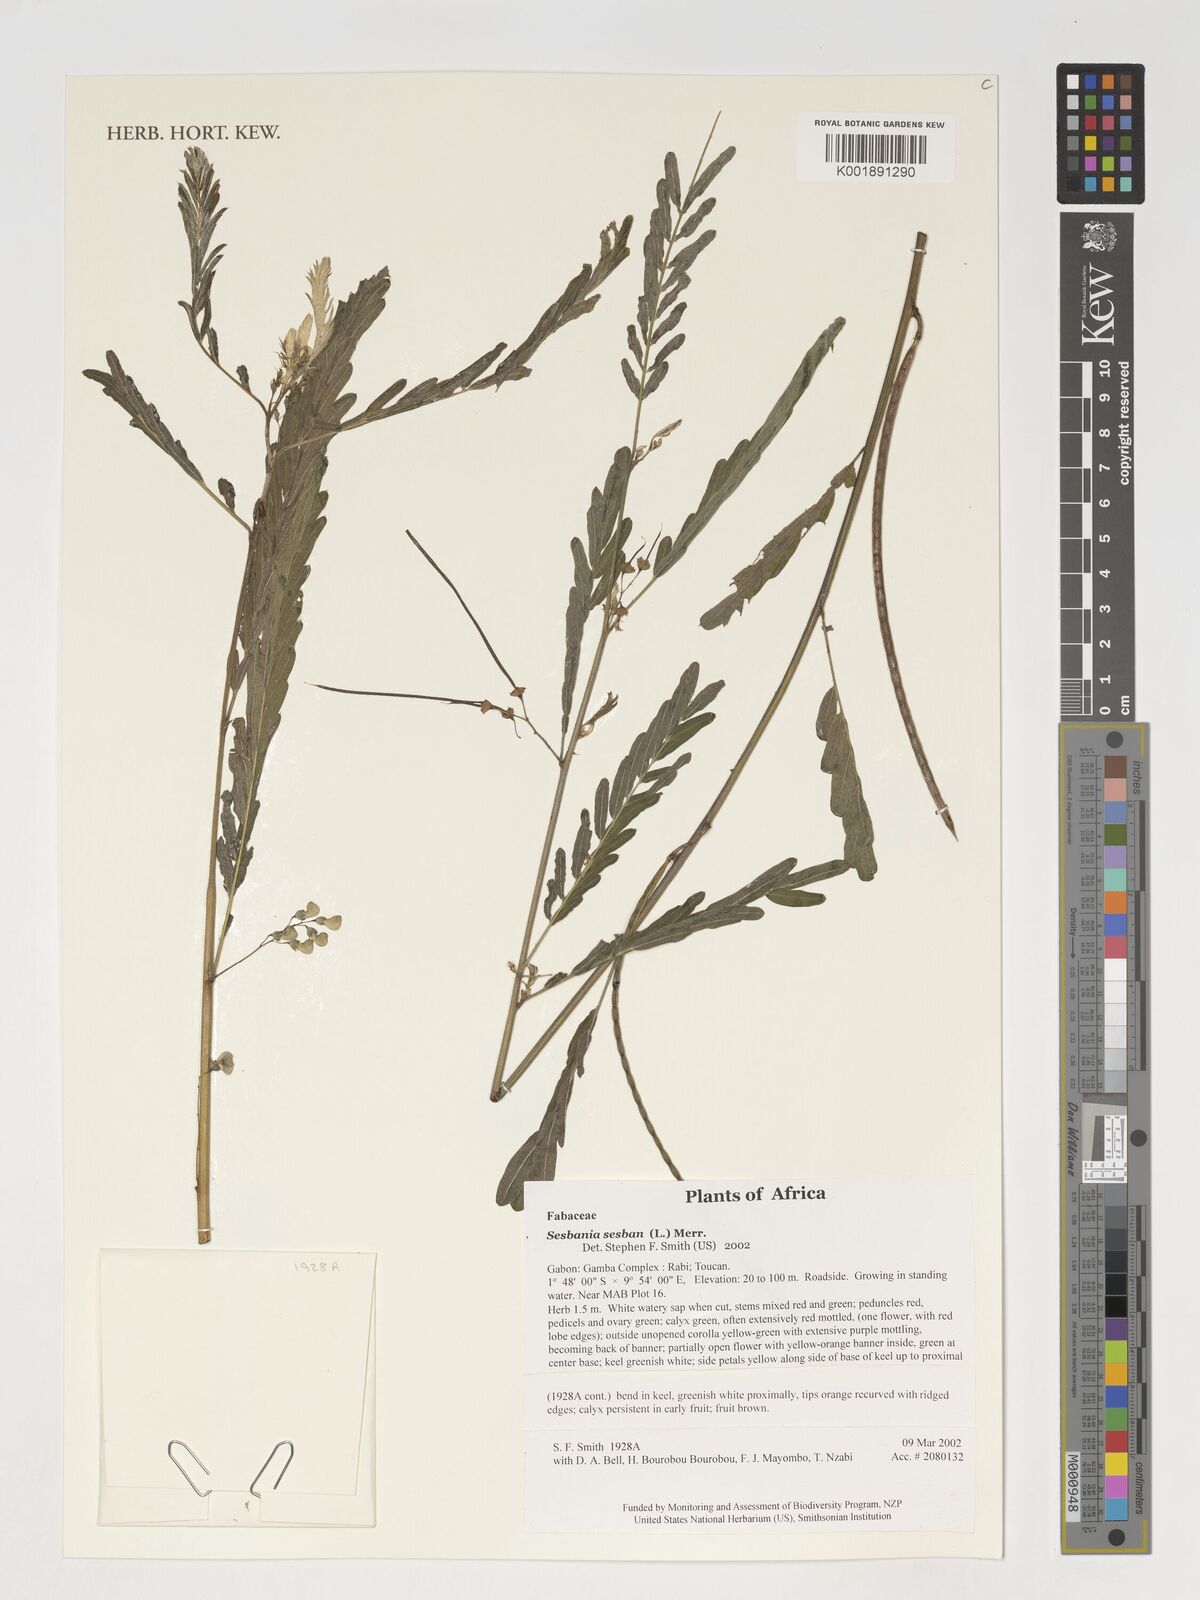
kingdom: Plantae
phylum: Tracheophyta
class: Magnoliopsida
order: Fabales
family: Fabaceae
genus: Sesbania
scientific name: Sesbania sesban
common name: Egyptian sesban
